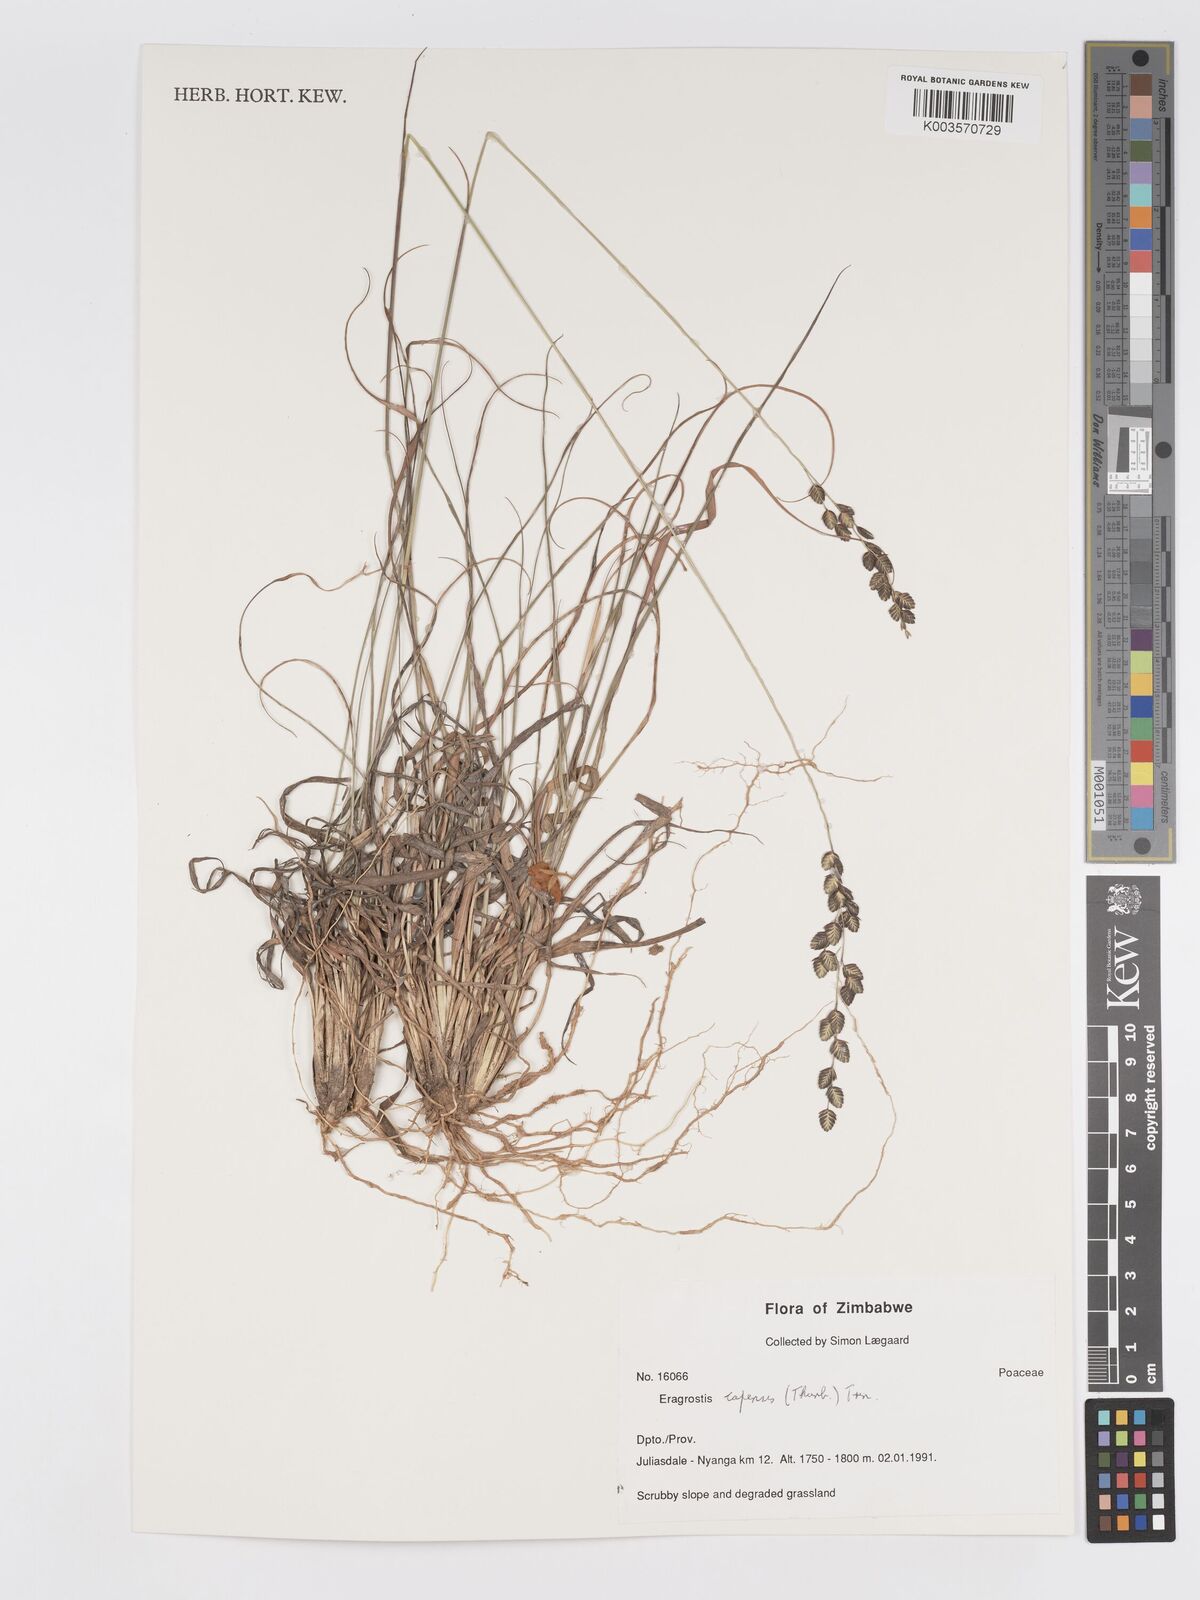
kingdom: Plantae
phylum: Tracheophyta
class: Liliopsida
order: Poales
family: Poaceae
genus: Eragrostis
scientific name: Eragrostis capensis
